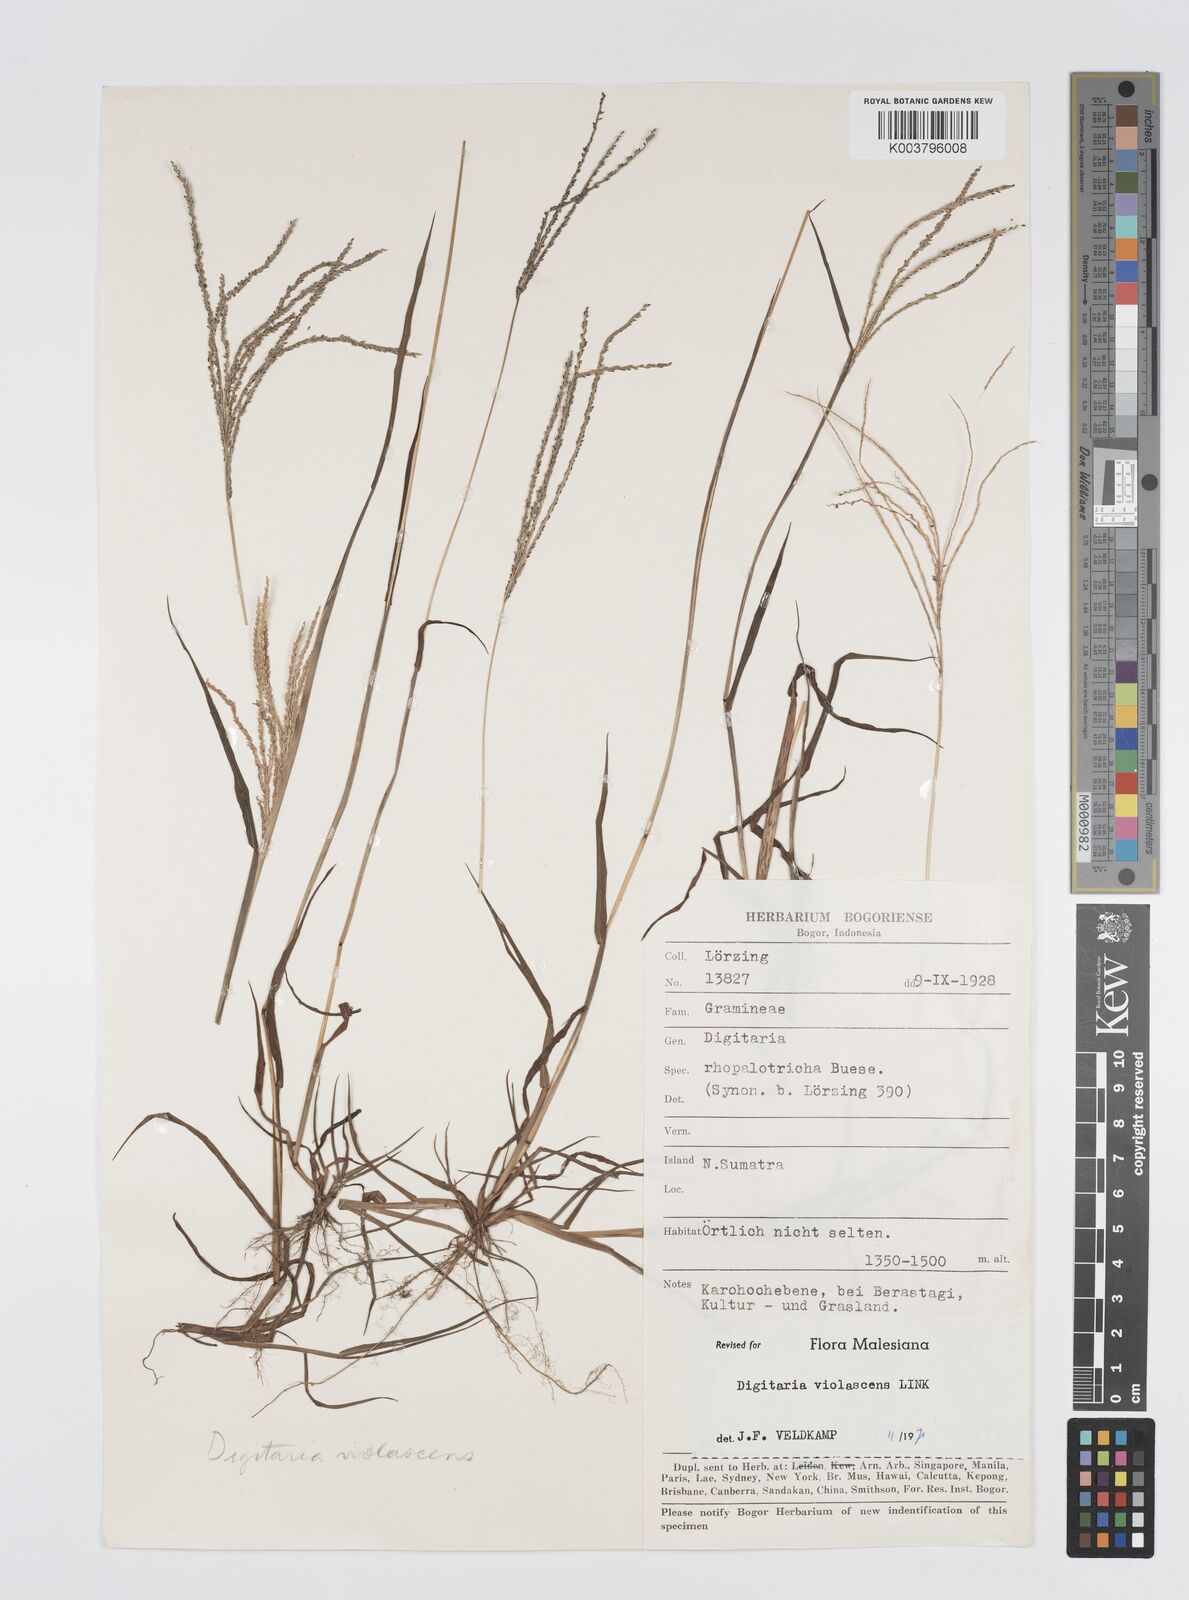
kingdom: Plantae
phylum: Tracheophyta
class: Liliopsida
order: Poales
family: Poaceae
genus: Digitaria
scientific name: Digitaria violascens
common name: Violet crabgrass
